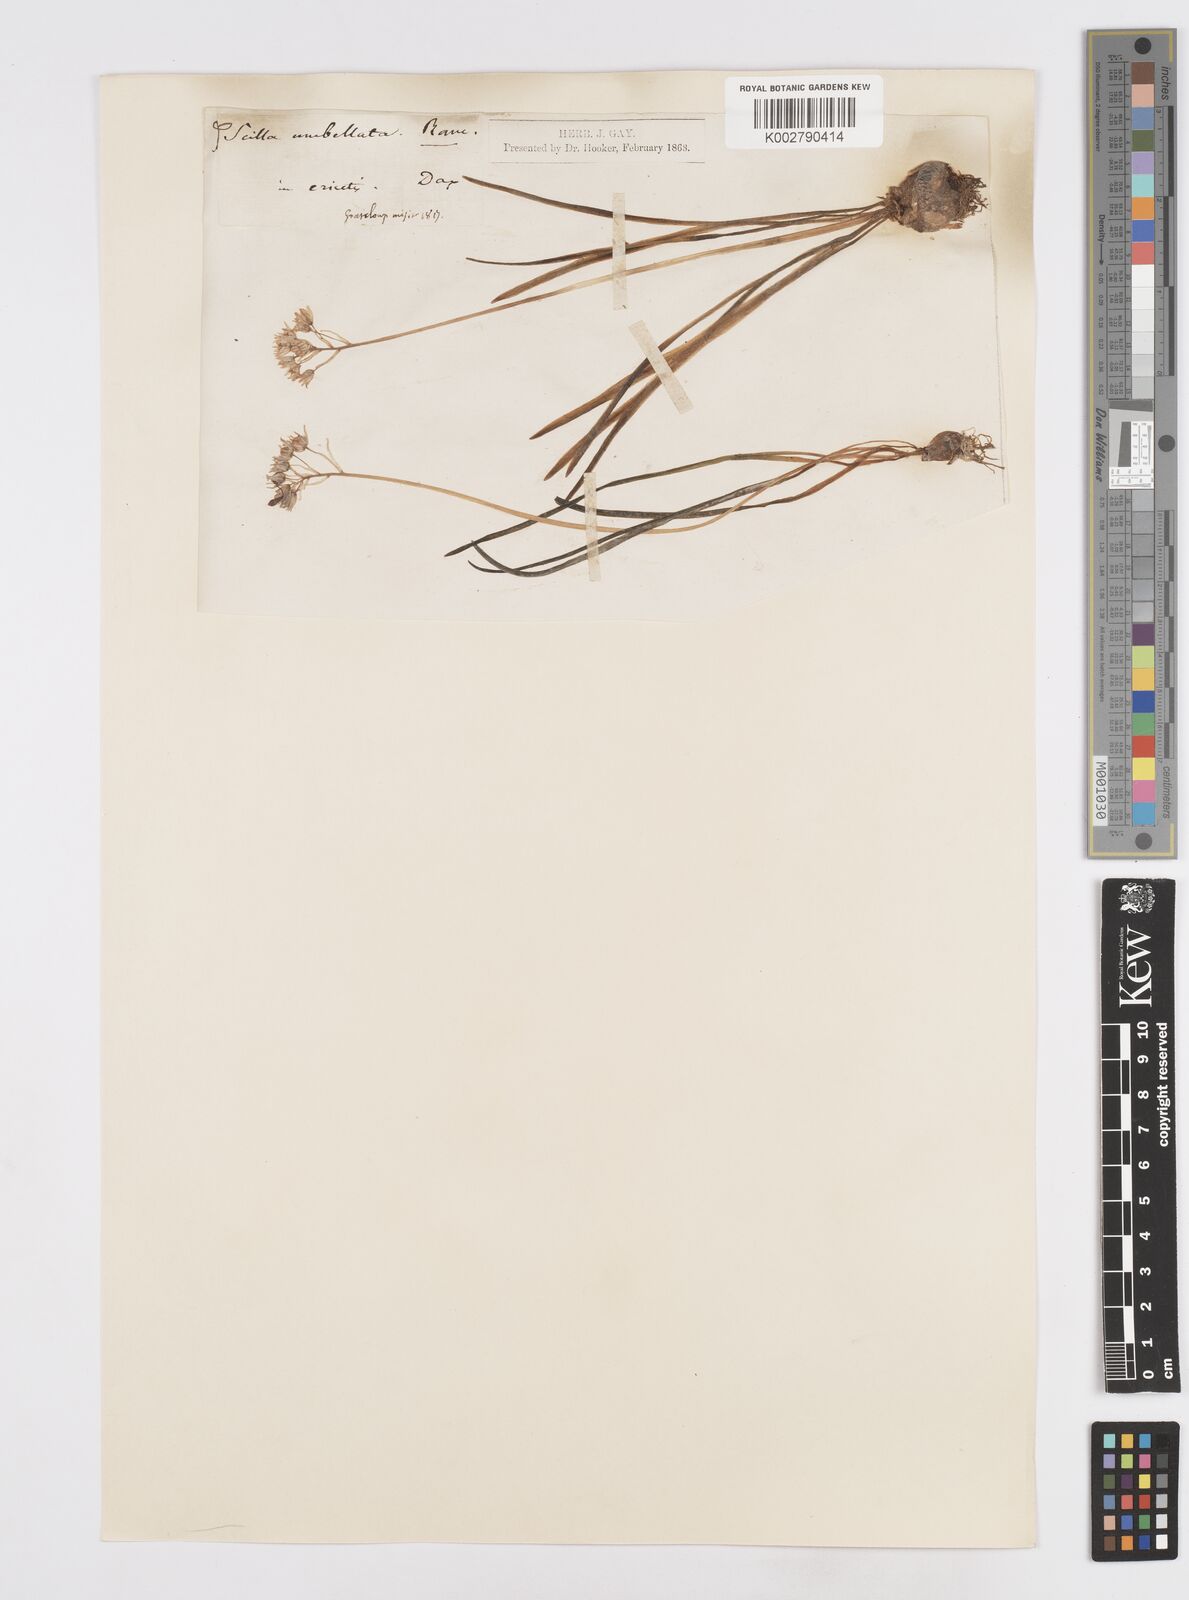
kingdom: Plantae
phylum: Tracheophyta
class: Liliopsida
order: Asparagales
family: Asparagaceae
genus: Scilla
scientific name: Scilla verna
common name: Spring squill
